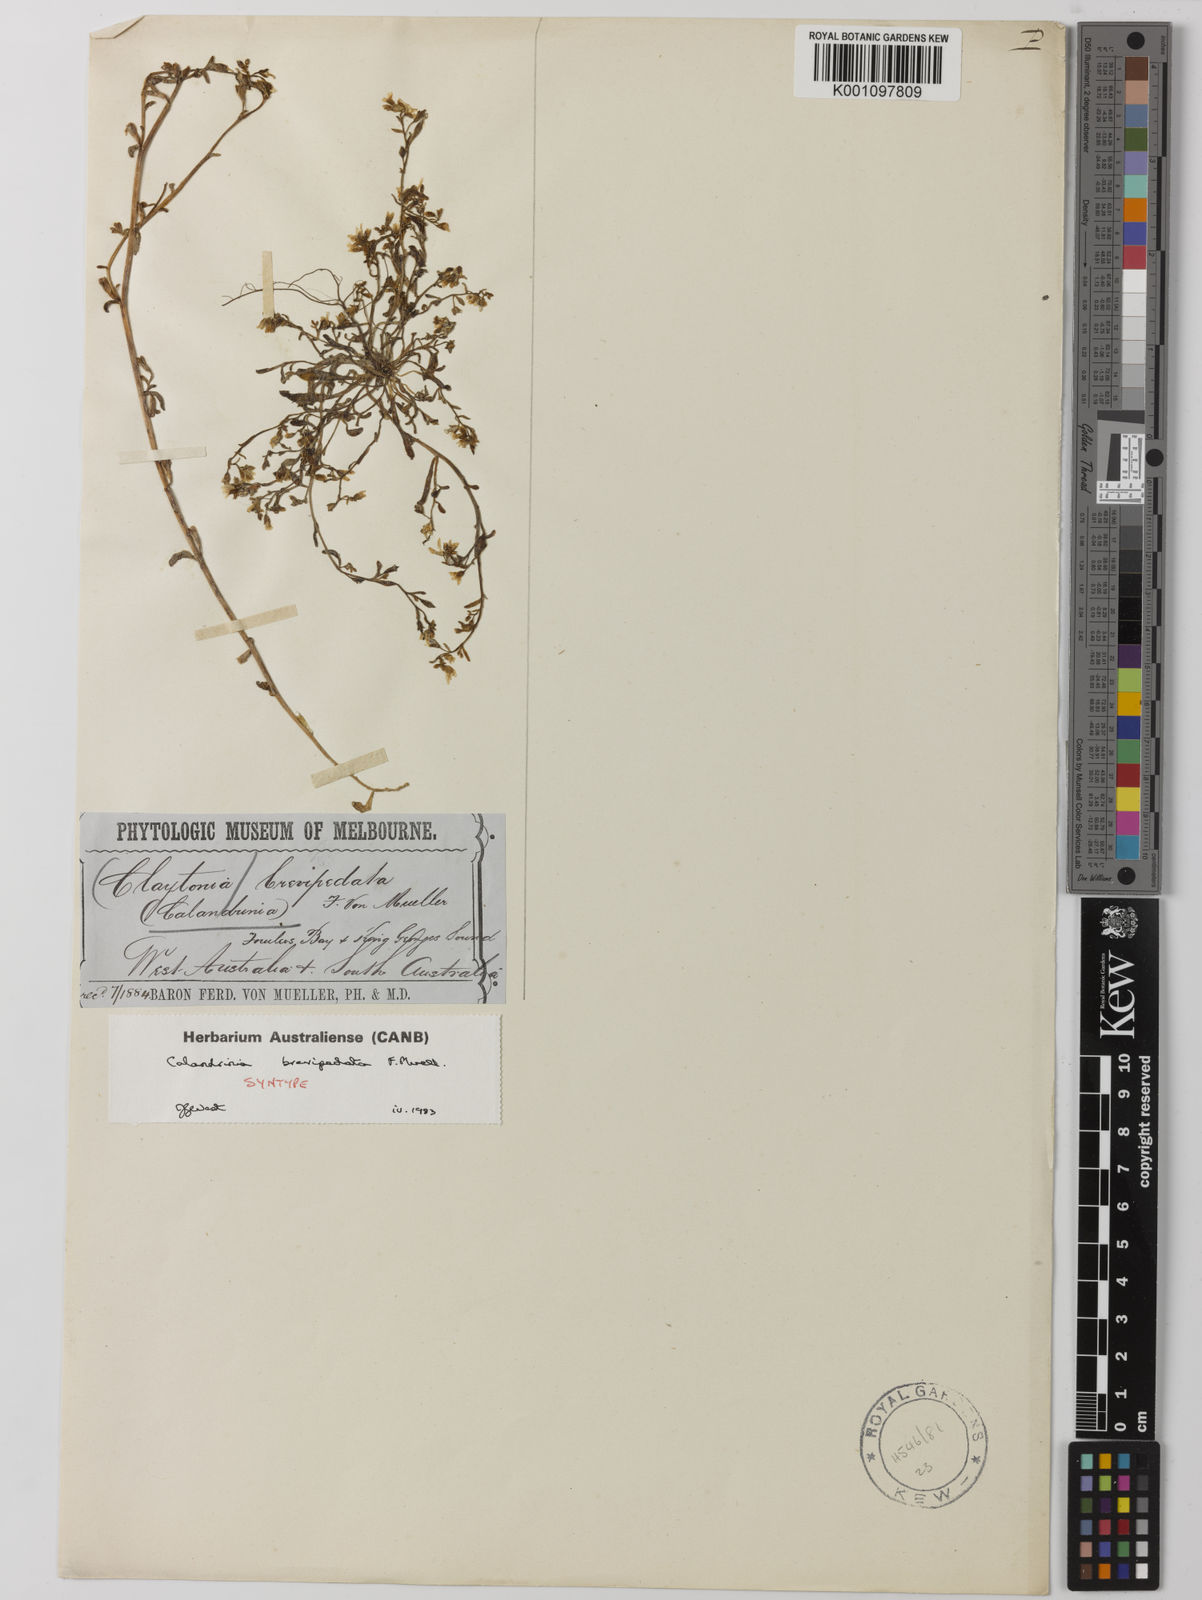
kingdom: Plantae
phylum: Tracheophyta
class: Magnoliopsida
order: Caryophyllales
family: Montiaceae
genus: Rumicastrum
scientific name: Rumicastrum brevipedatum
